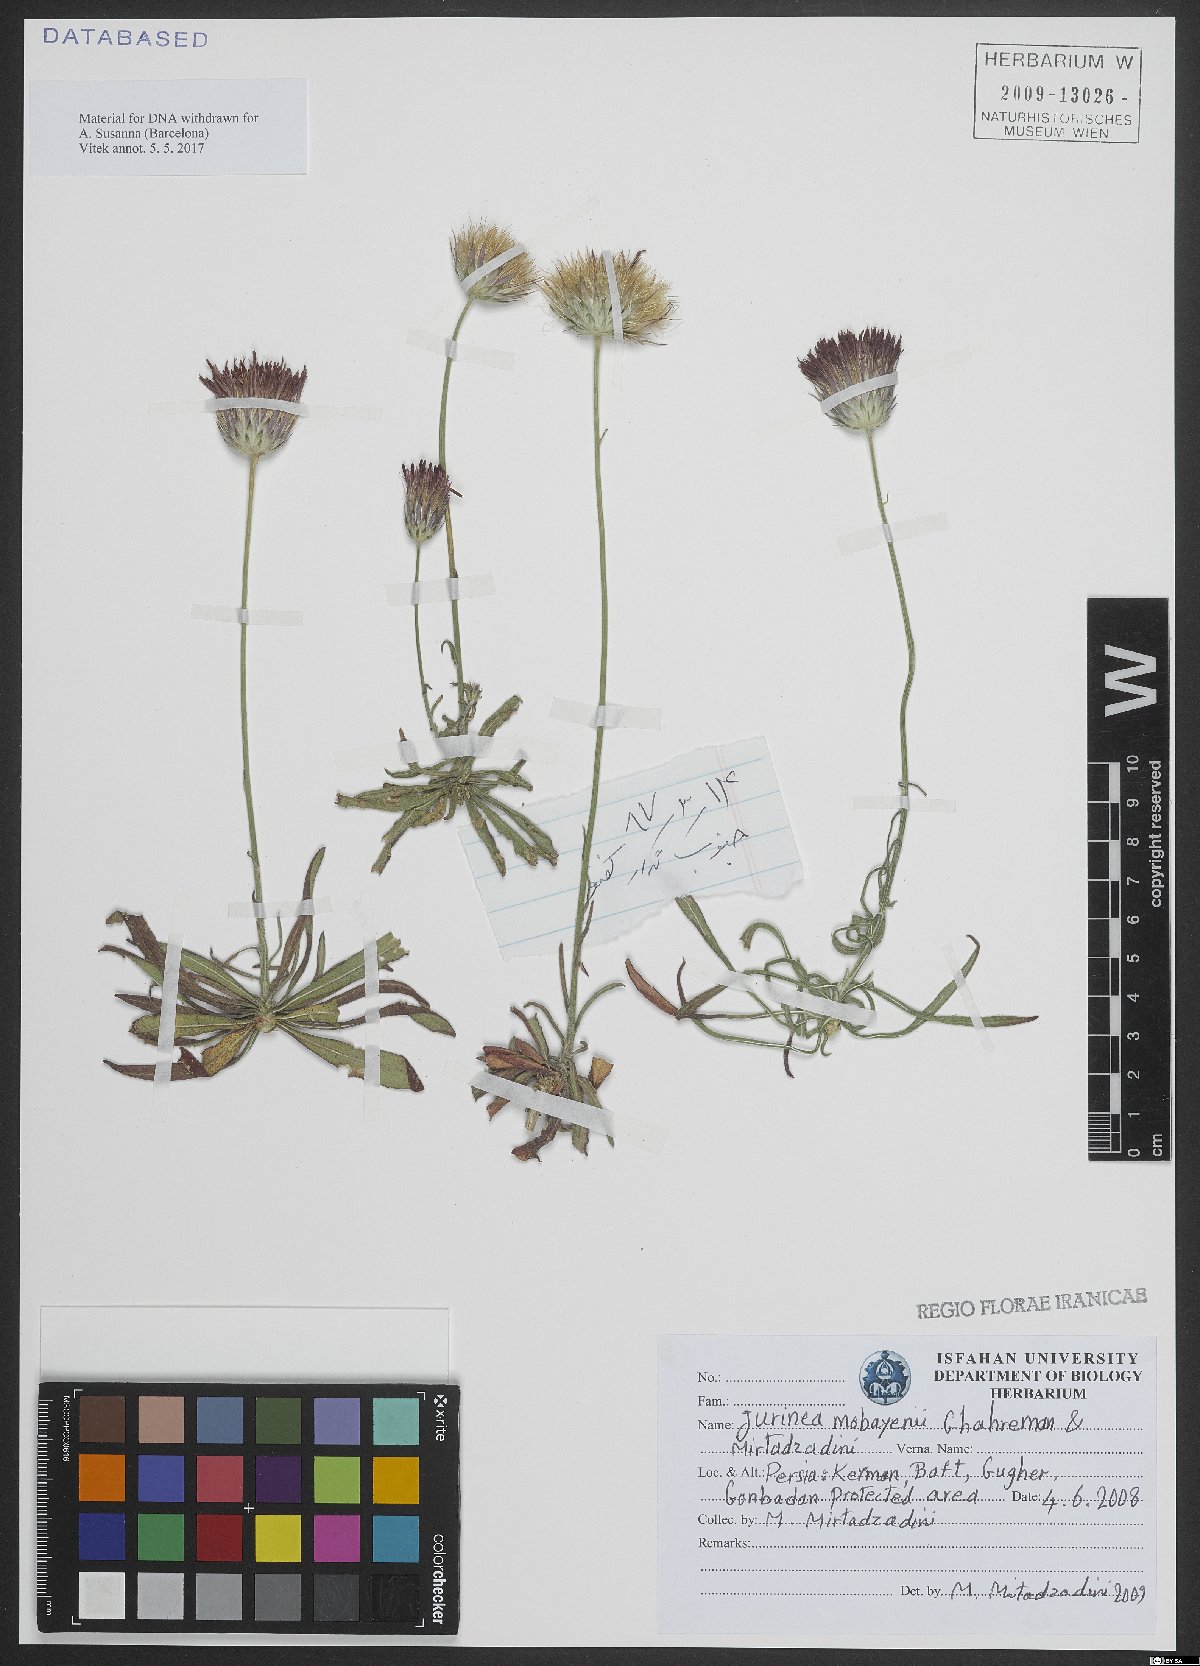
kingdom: Plantae
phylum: Tracheophyta
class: Magnoliopsida
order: Asterales
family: Asteraceae
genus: Jurinea
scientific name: Jurinea mobayenii
